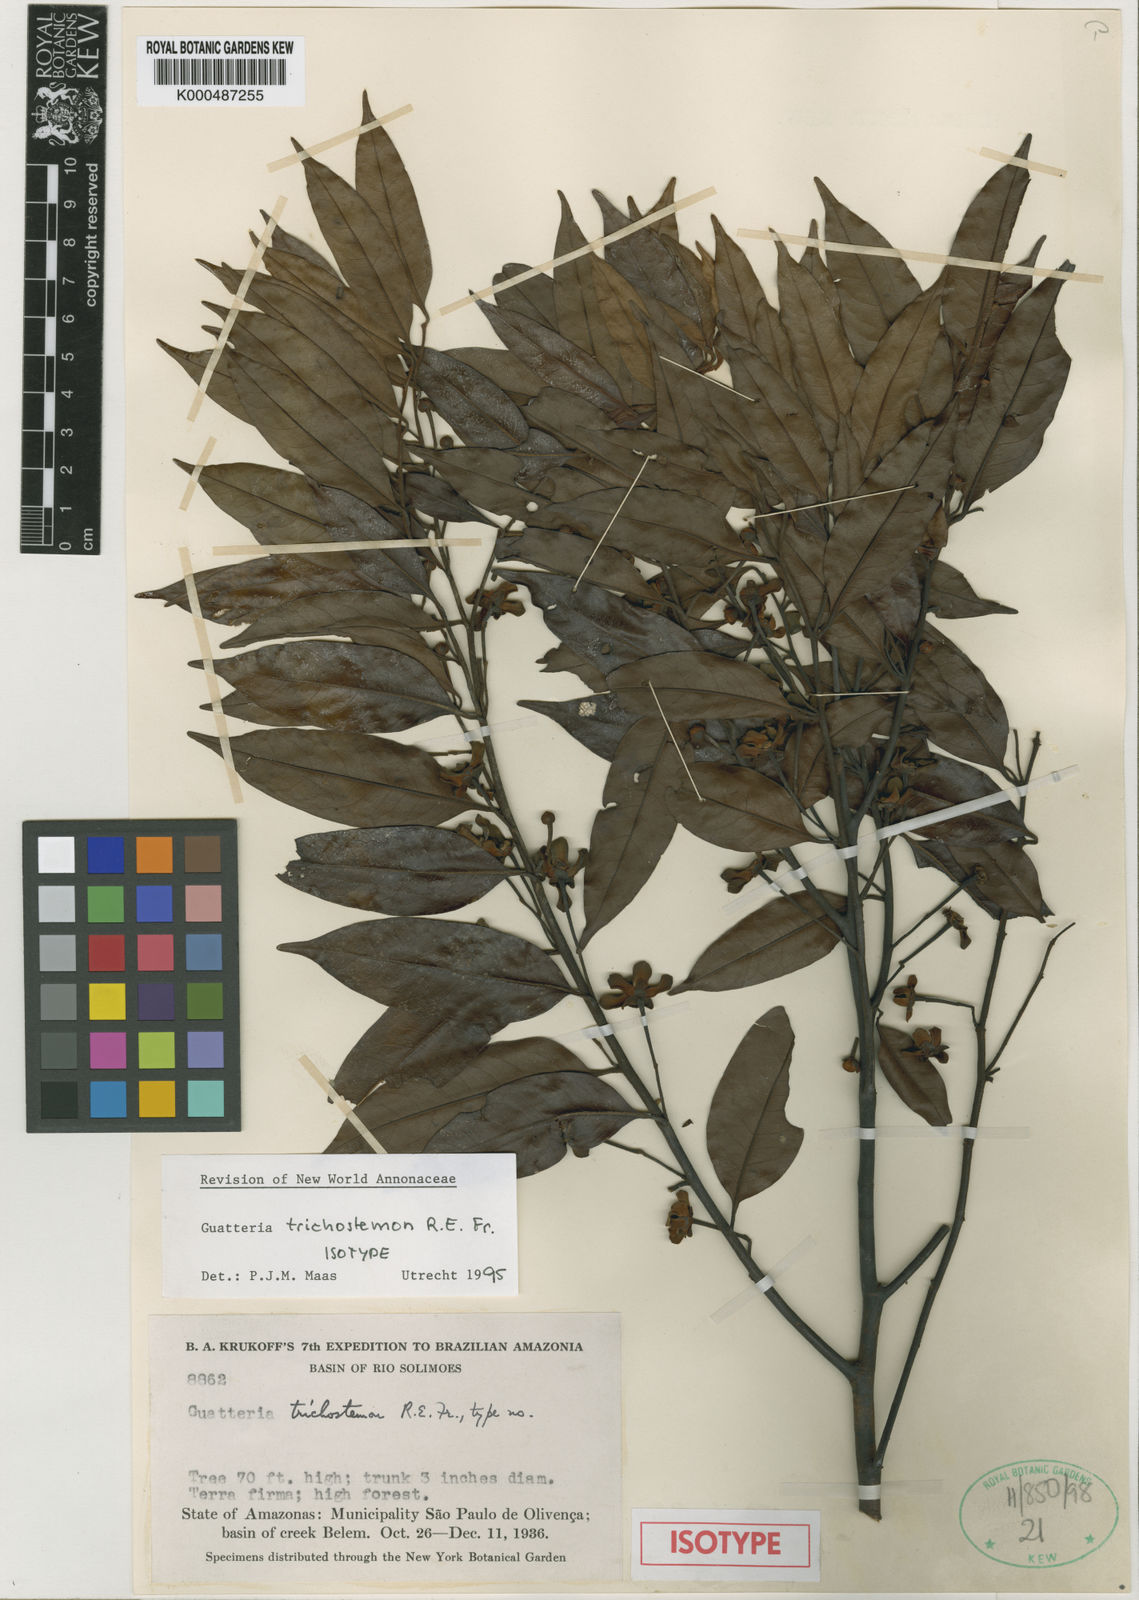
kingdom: Plantae
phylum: Tracheophyta
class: Magnoliopsida
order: Magnoliales
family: Annonaceae
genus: Guatteria
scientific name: Guatteria trichostemon
